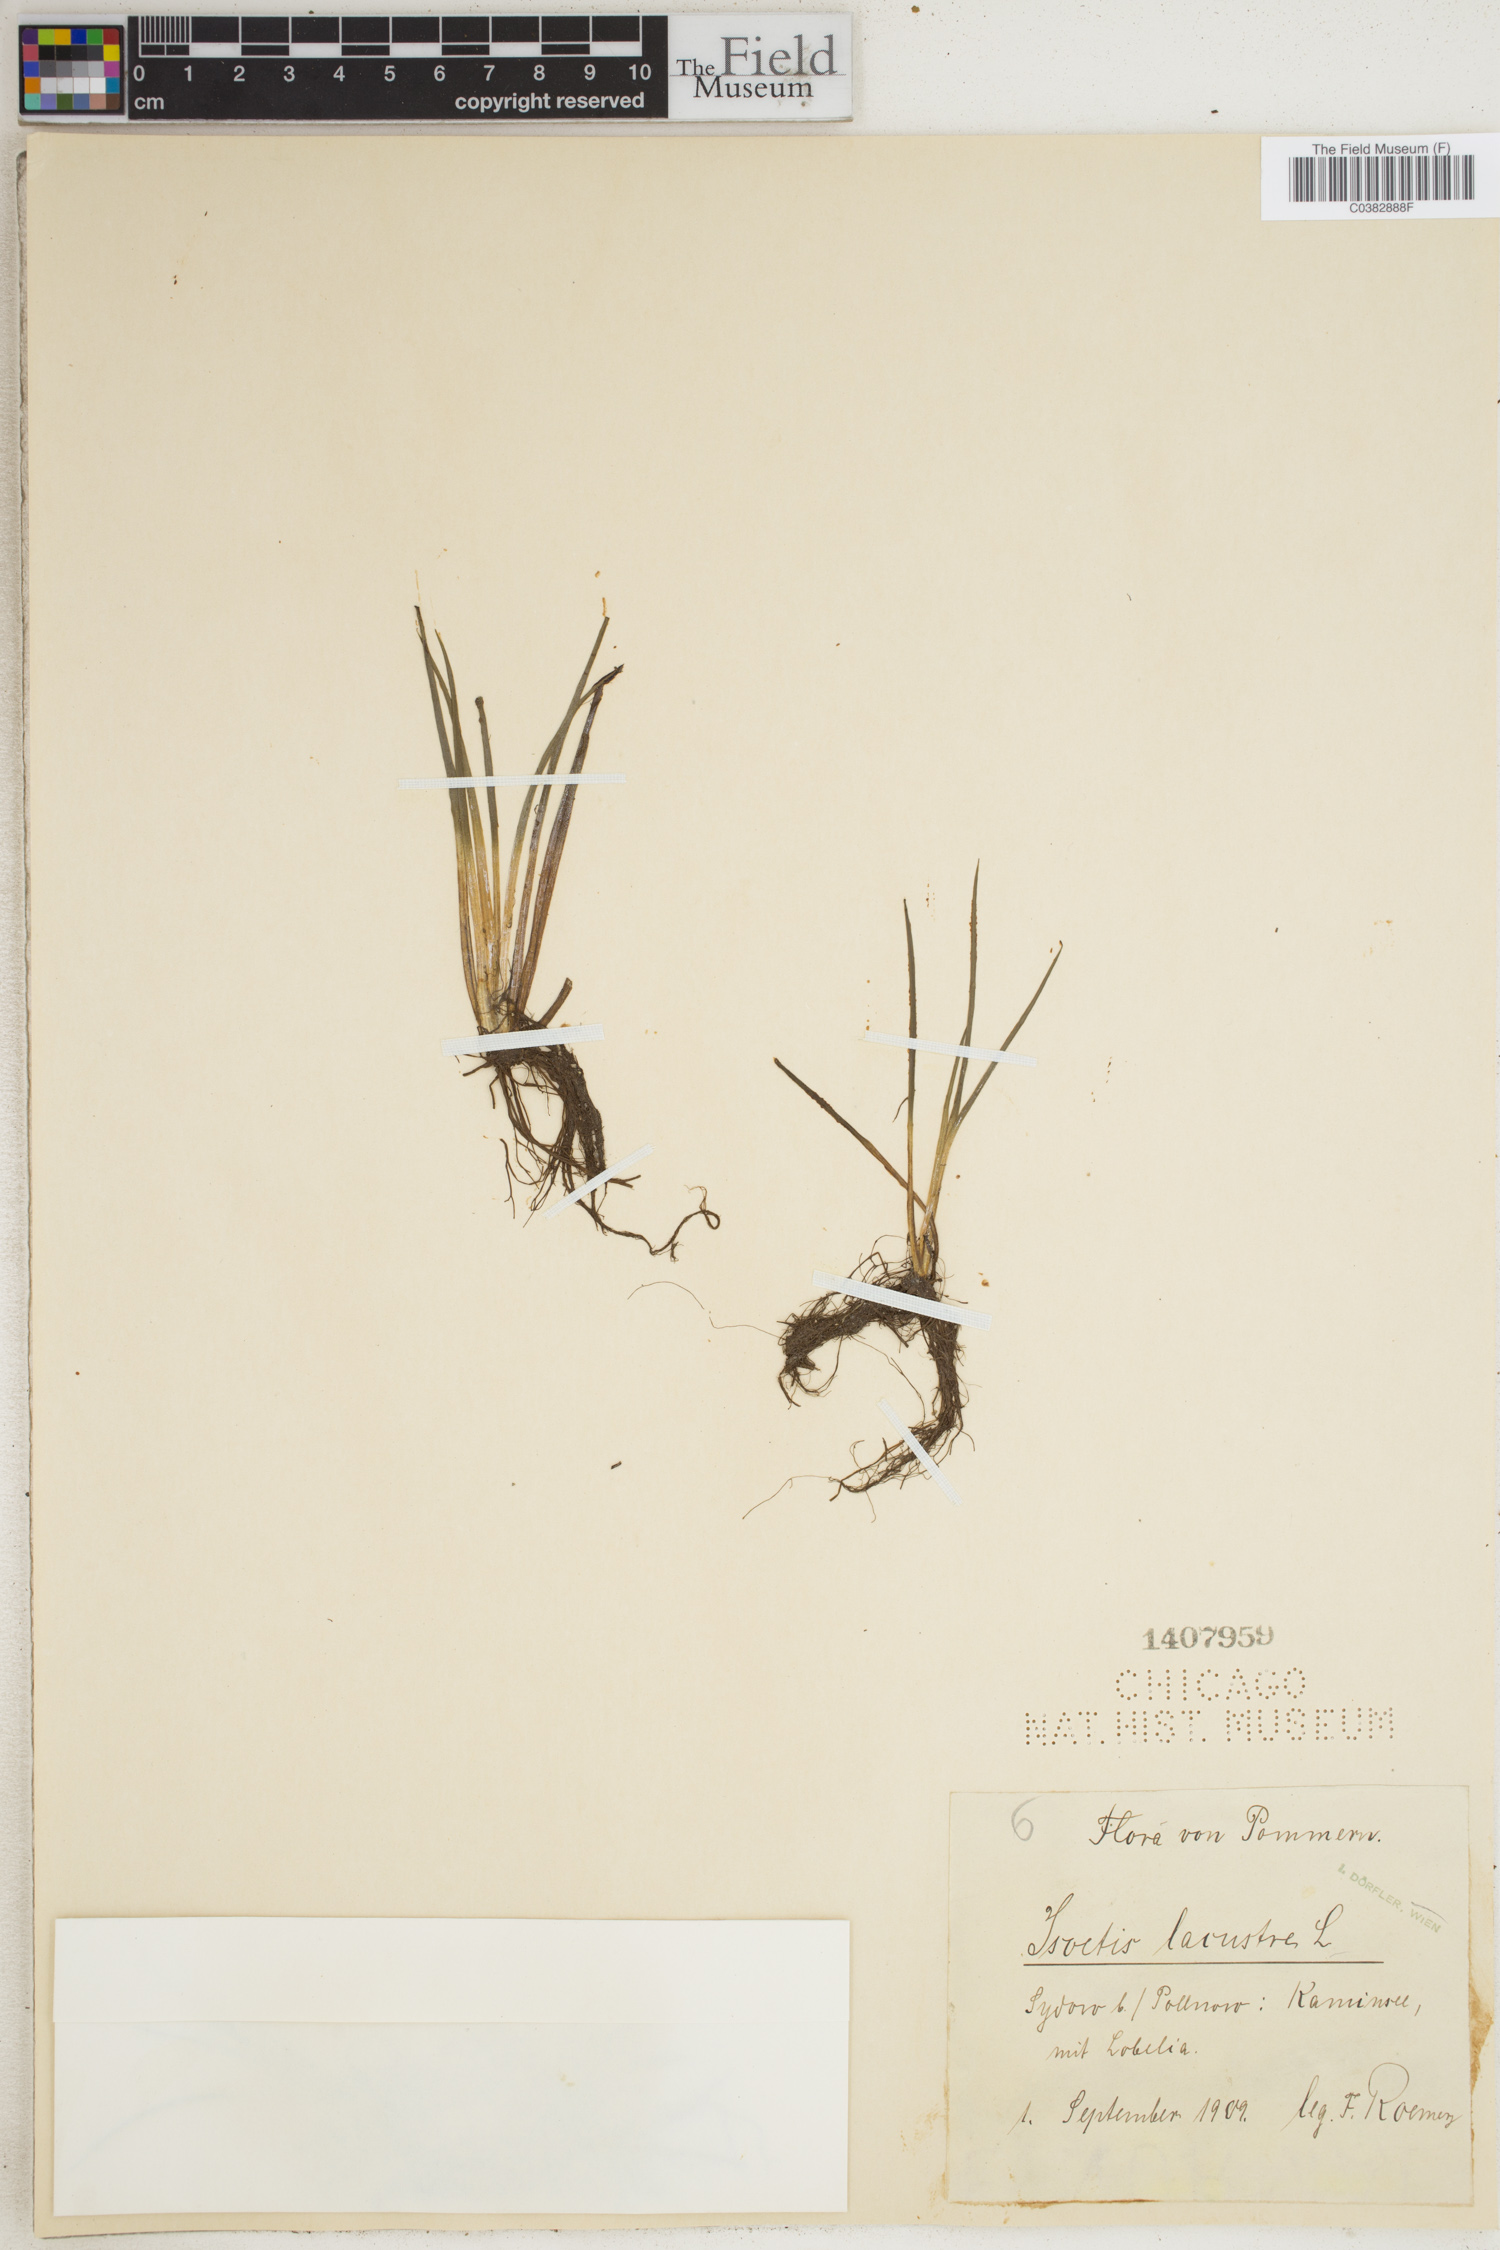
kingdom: Plantae
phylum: Tracheophyta
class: Lycopodiopsida
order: Isoetales
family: Isoetaceae
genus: Isoetes
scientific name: Isoetes lacustris
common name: Common quillwort
